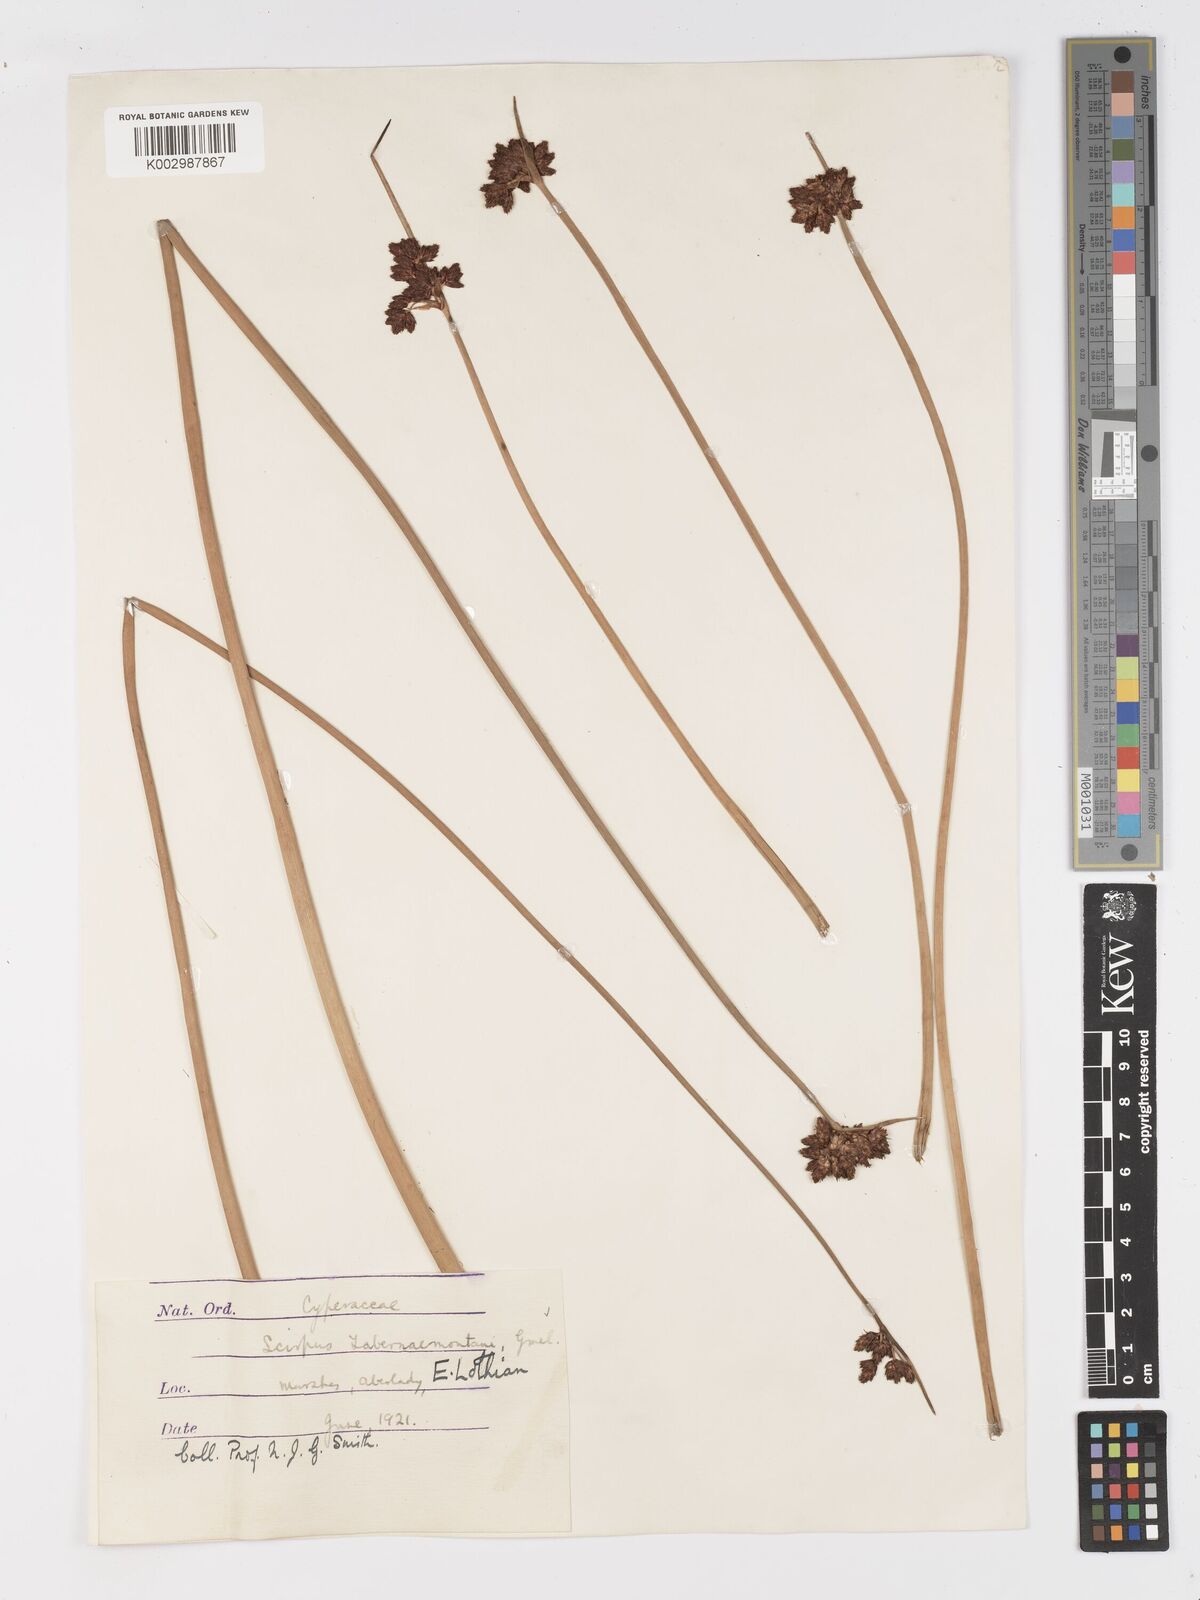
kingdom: Plantae
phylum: Tracheophyta
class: Liliopsida
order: Poales
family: Cyperaceae
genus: Schoenoplectus
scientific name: Schoenoplectus tabernaemontani
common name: Grey club-rush
